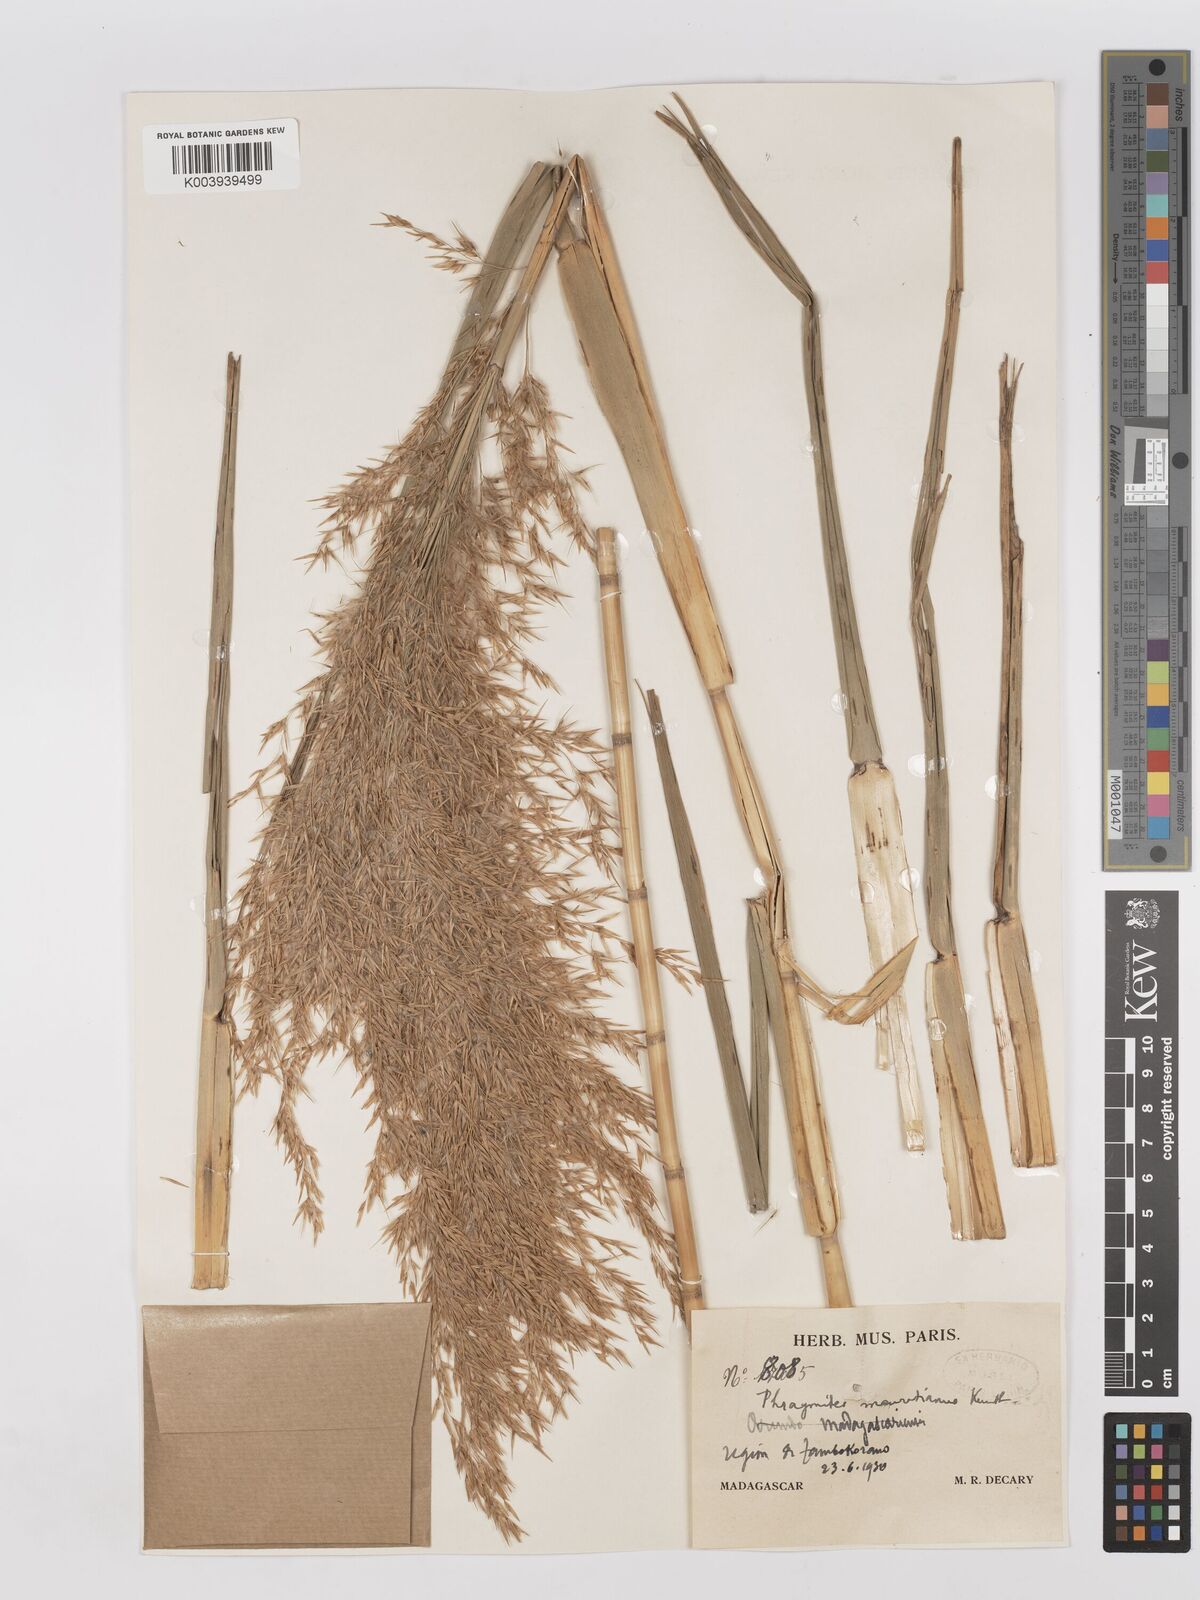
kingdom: Plantae
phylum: Tracheophyta
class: Liliopsida
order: Poales
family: Poaceae
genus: Phragmites
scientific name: Phragmites mauritianus
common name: Reed grass
